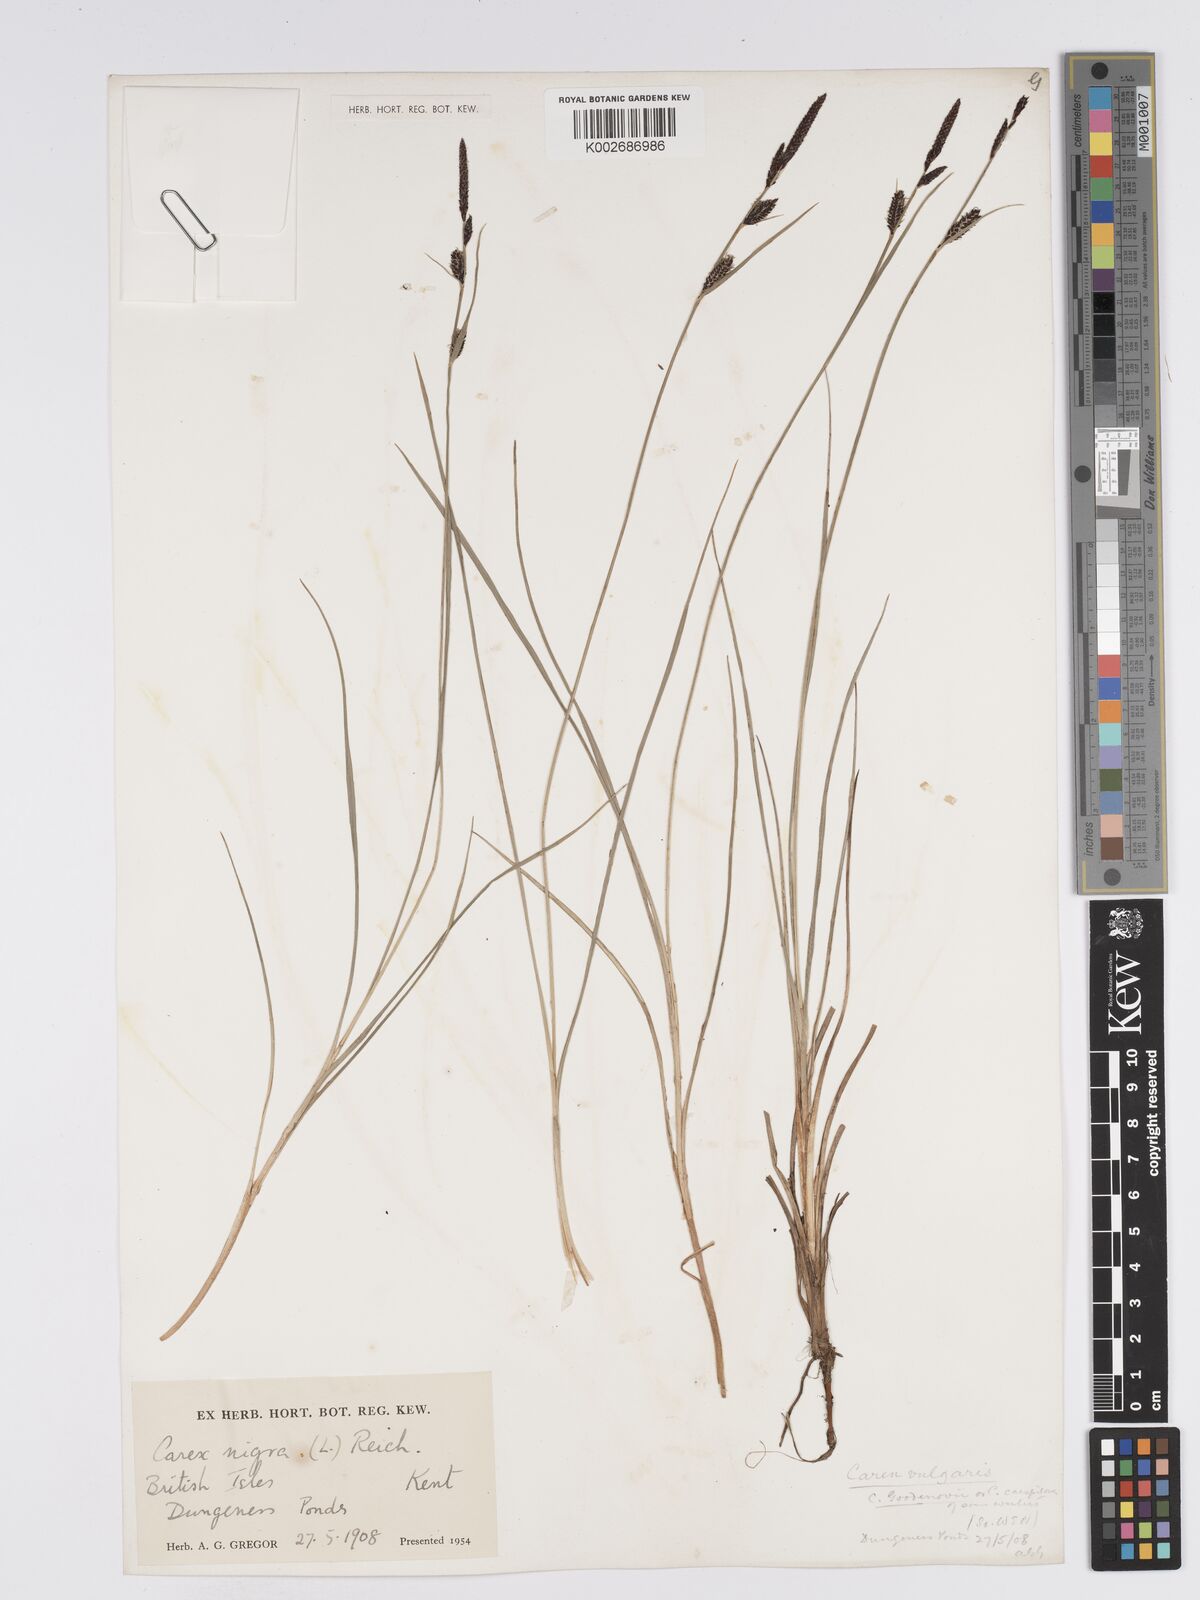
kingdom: Plantae
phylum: Tracheophyta
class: Liliopsida
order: Poales
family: Cyperaceae
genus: Carex
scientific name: Carex nigra
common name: Common sedge
